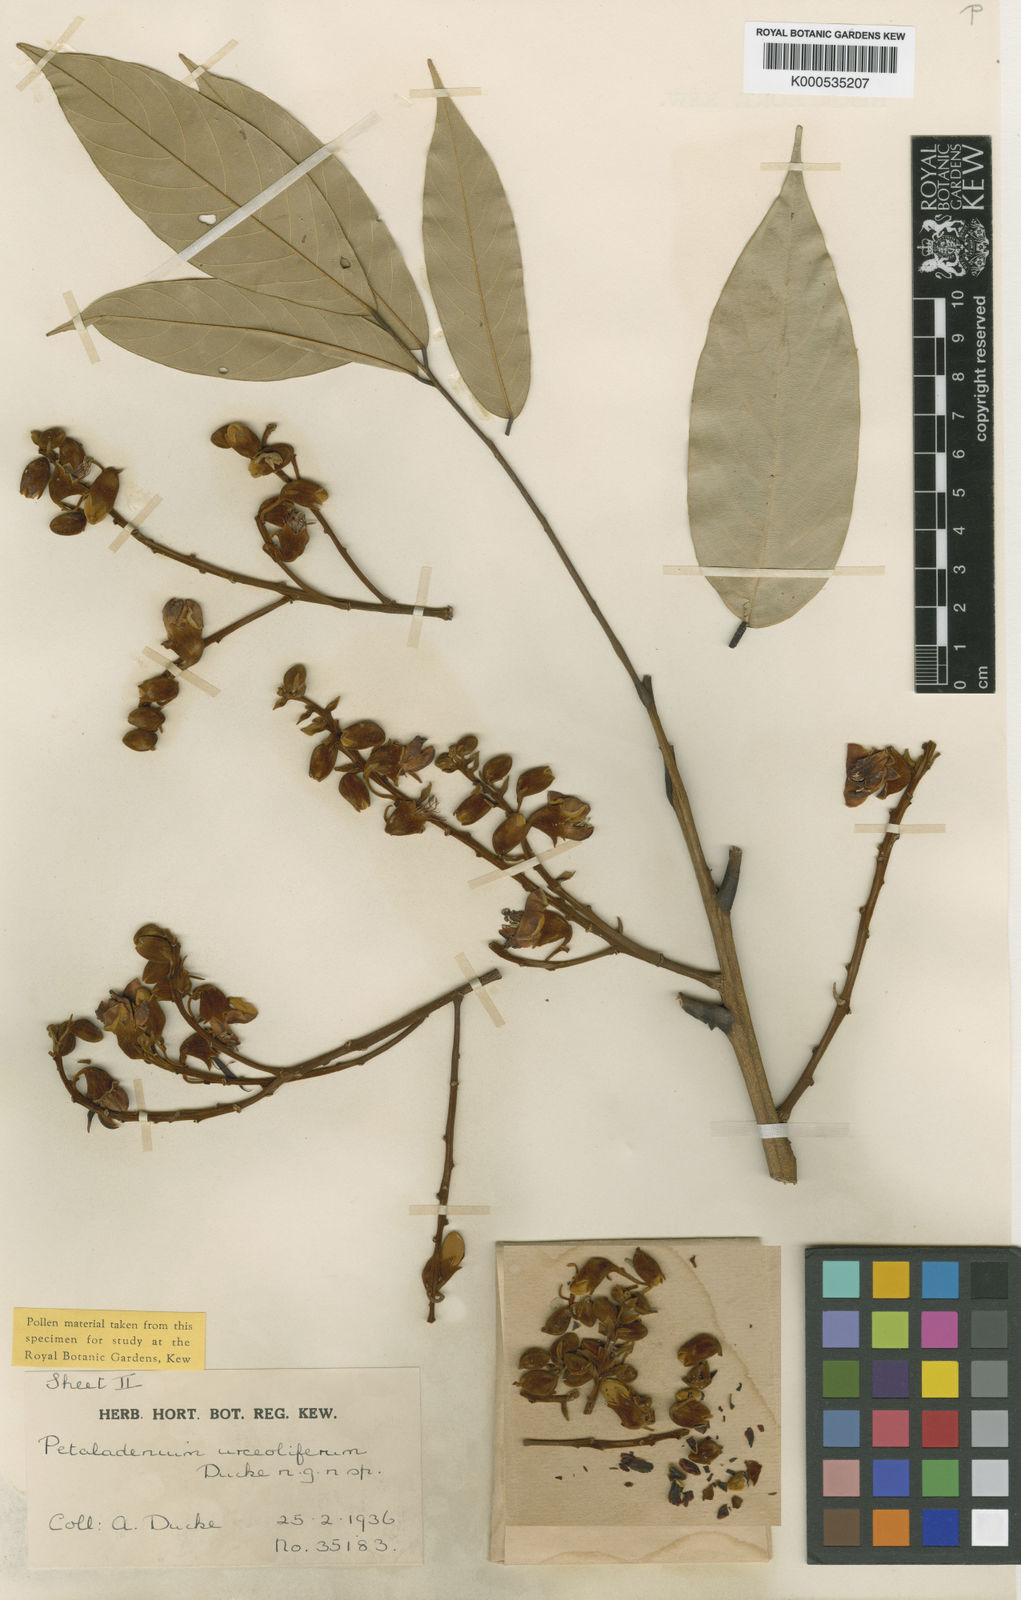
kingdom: Plantae
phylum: Tracheophyta
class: Magnoliopsida
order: Fabales
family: Fabaceae
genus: Petaladenium
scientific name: Petaladenium urceoliferum
